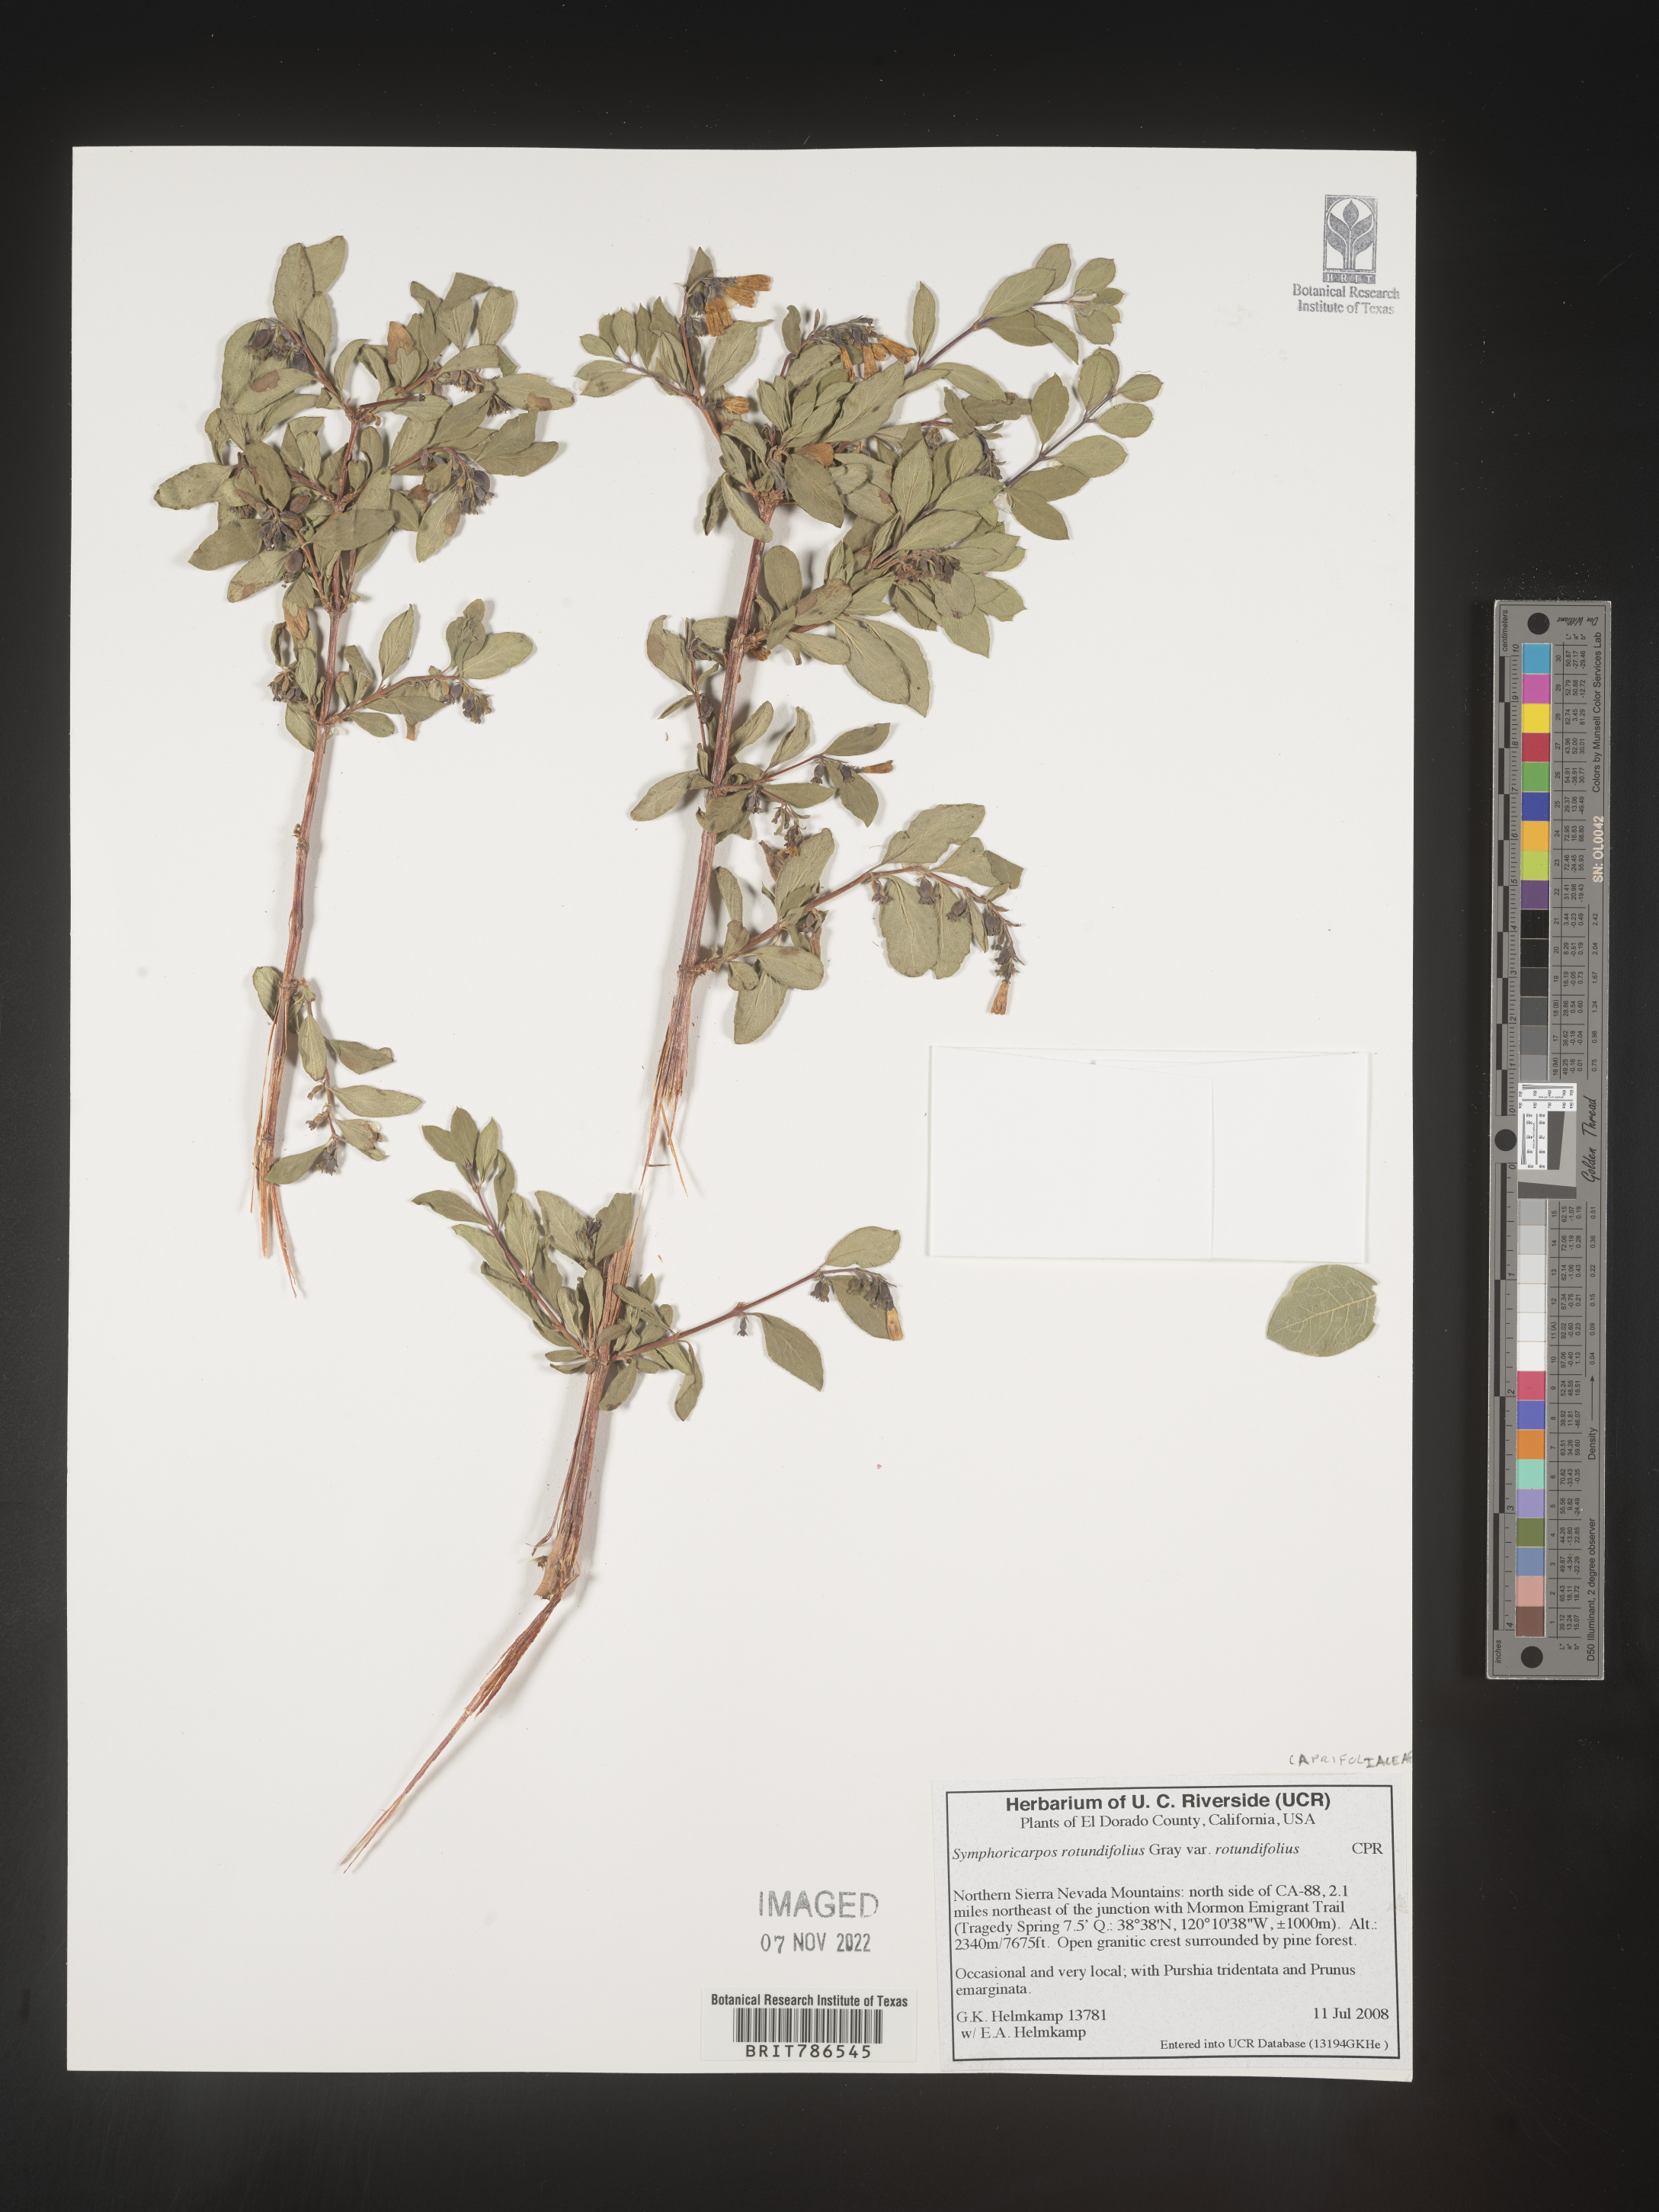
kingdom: Plantae
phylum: Tracheophyta
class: Magnoliopsida
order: Dipsacales
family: Caprifoliaceae
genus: Symphoricarpos
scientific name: Symphoricarpos
